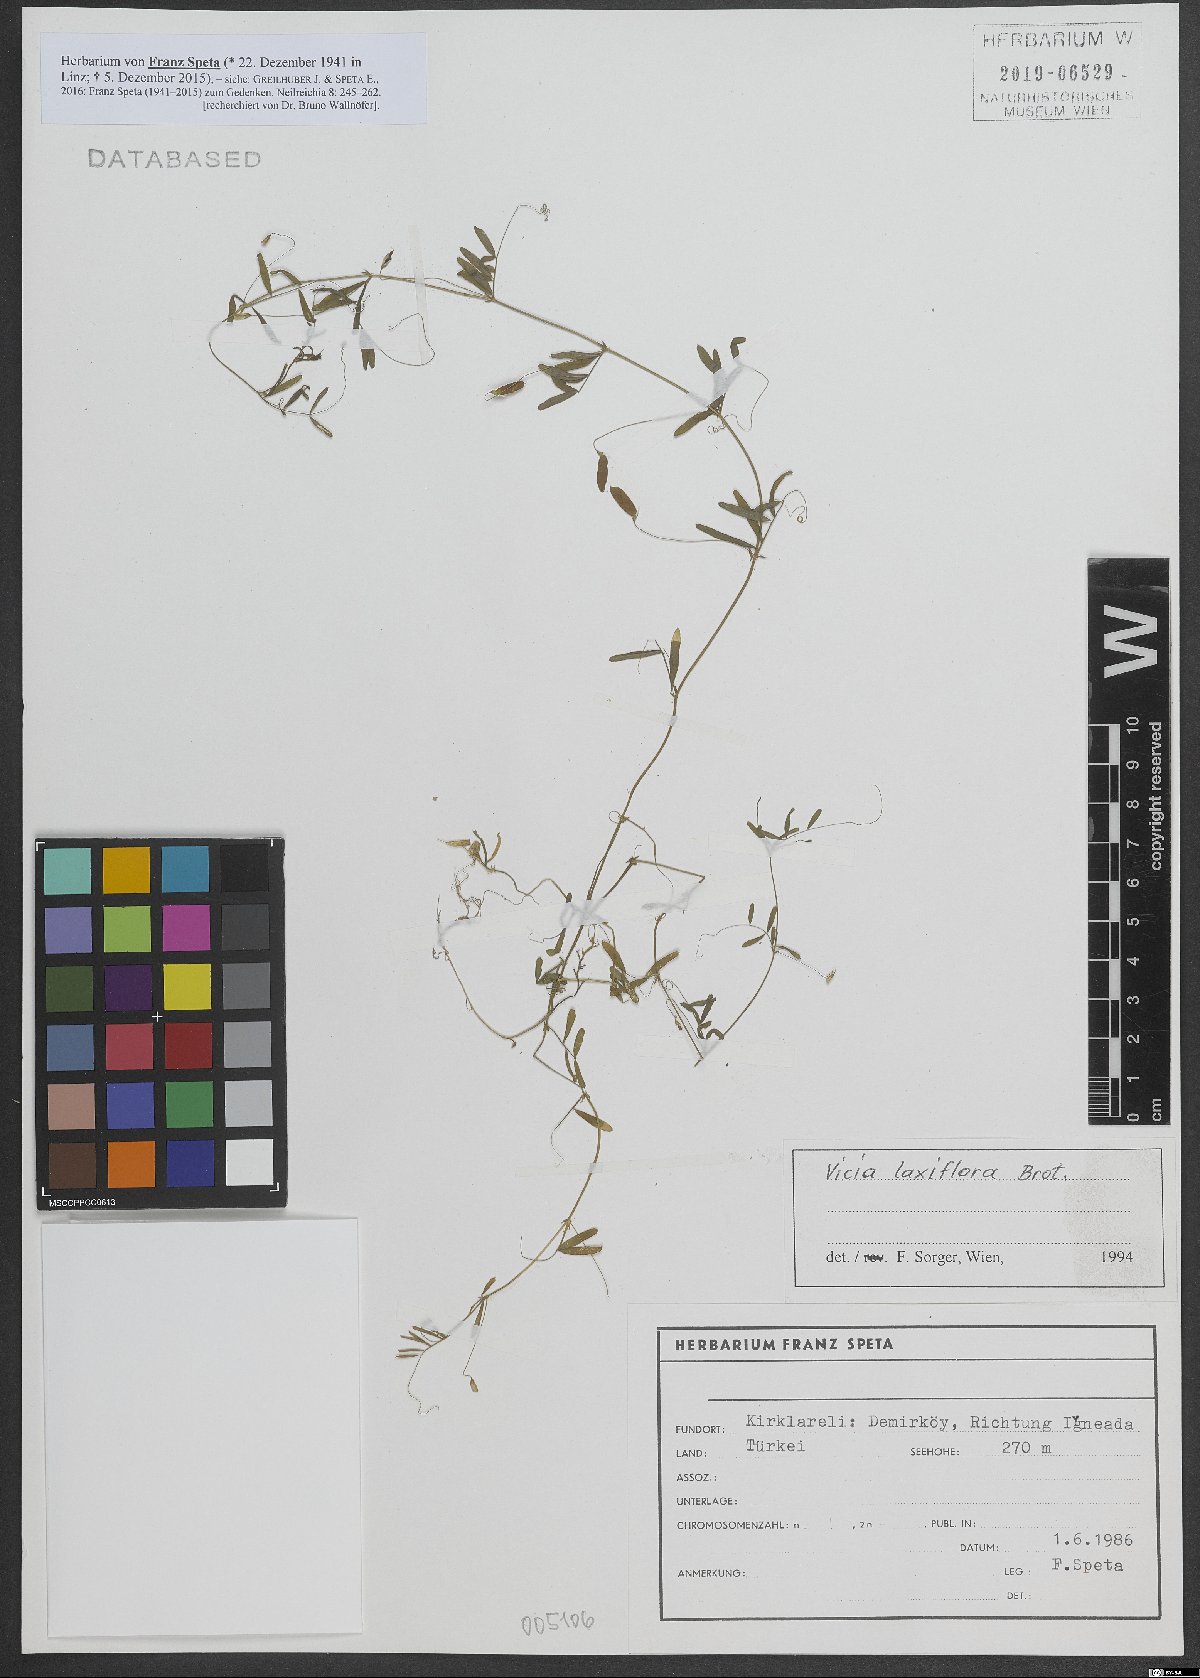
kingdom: Plantae
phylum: Tracheophyta
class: Magnoliopsida
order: Fabales
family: Fabaceae
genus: Vicia
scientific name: Vicia parviflora
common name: Slender tare
